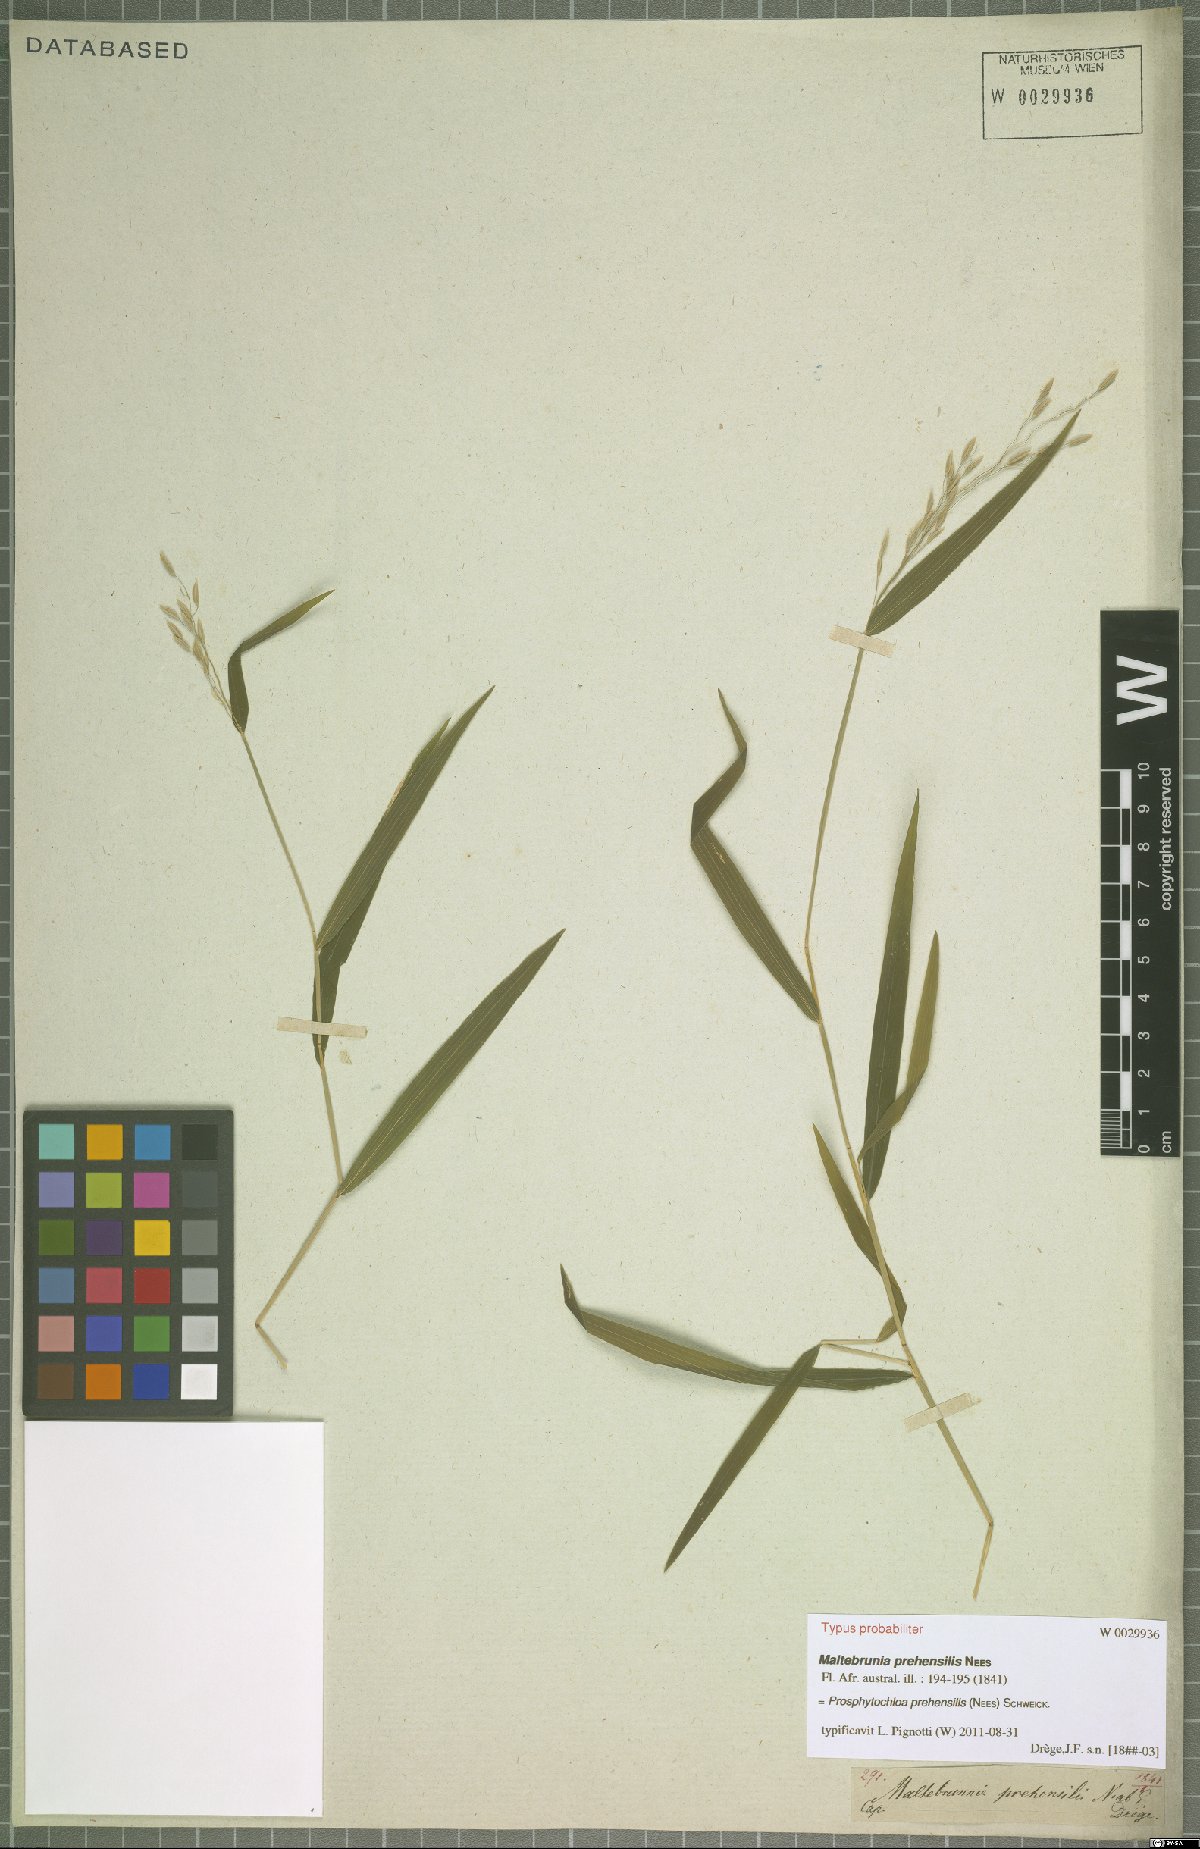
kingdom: Plantae
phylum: Tracheophyta
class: Liliopsida
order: Poales
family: Poaceae
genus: Prosphytochloa
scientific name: Prosphytochloa prehensilis
